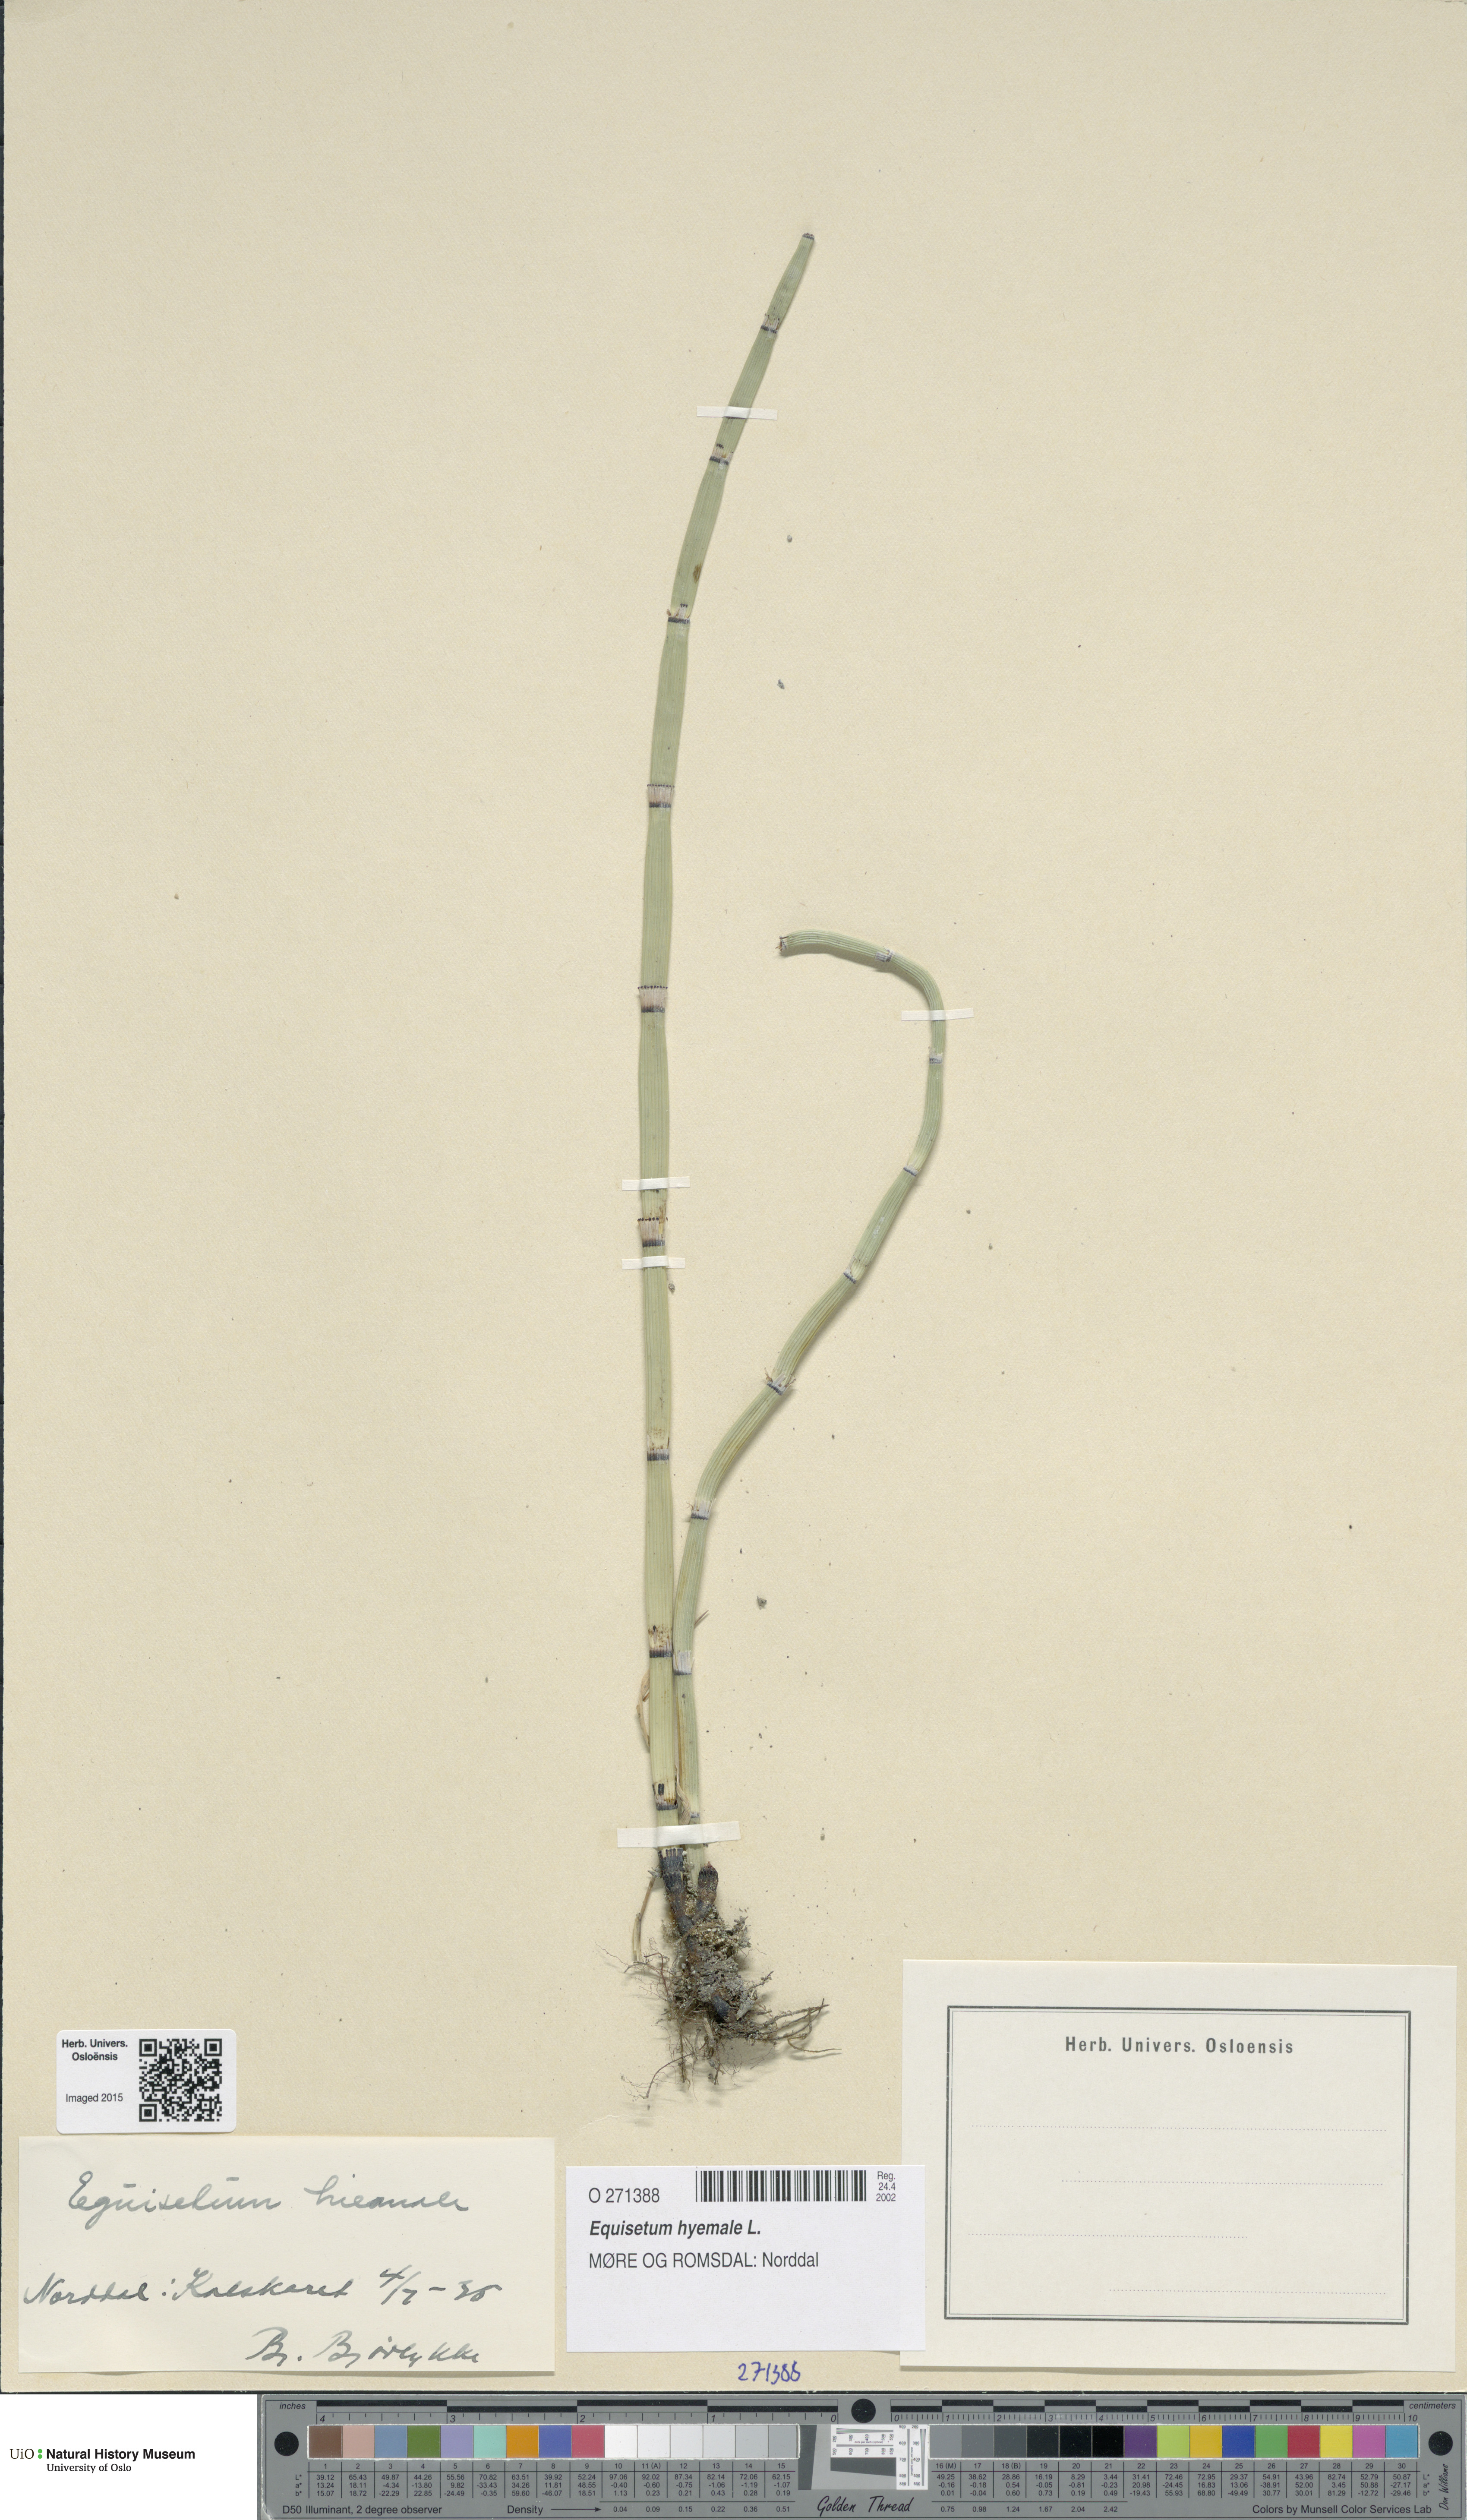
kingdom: Plantae
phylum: Tracheophyta
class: Polypodiopsida
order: Equisetales
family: Equisetaceae
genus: Equisetum
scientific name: Equisetum hyemale
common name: Rough horsetail
